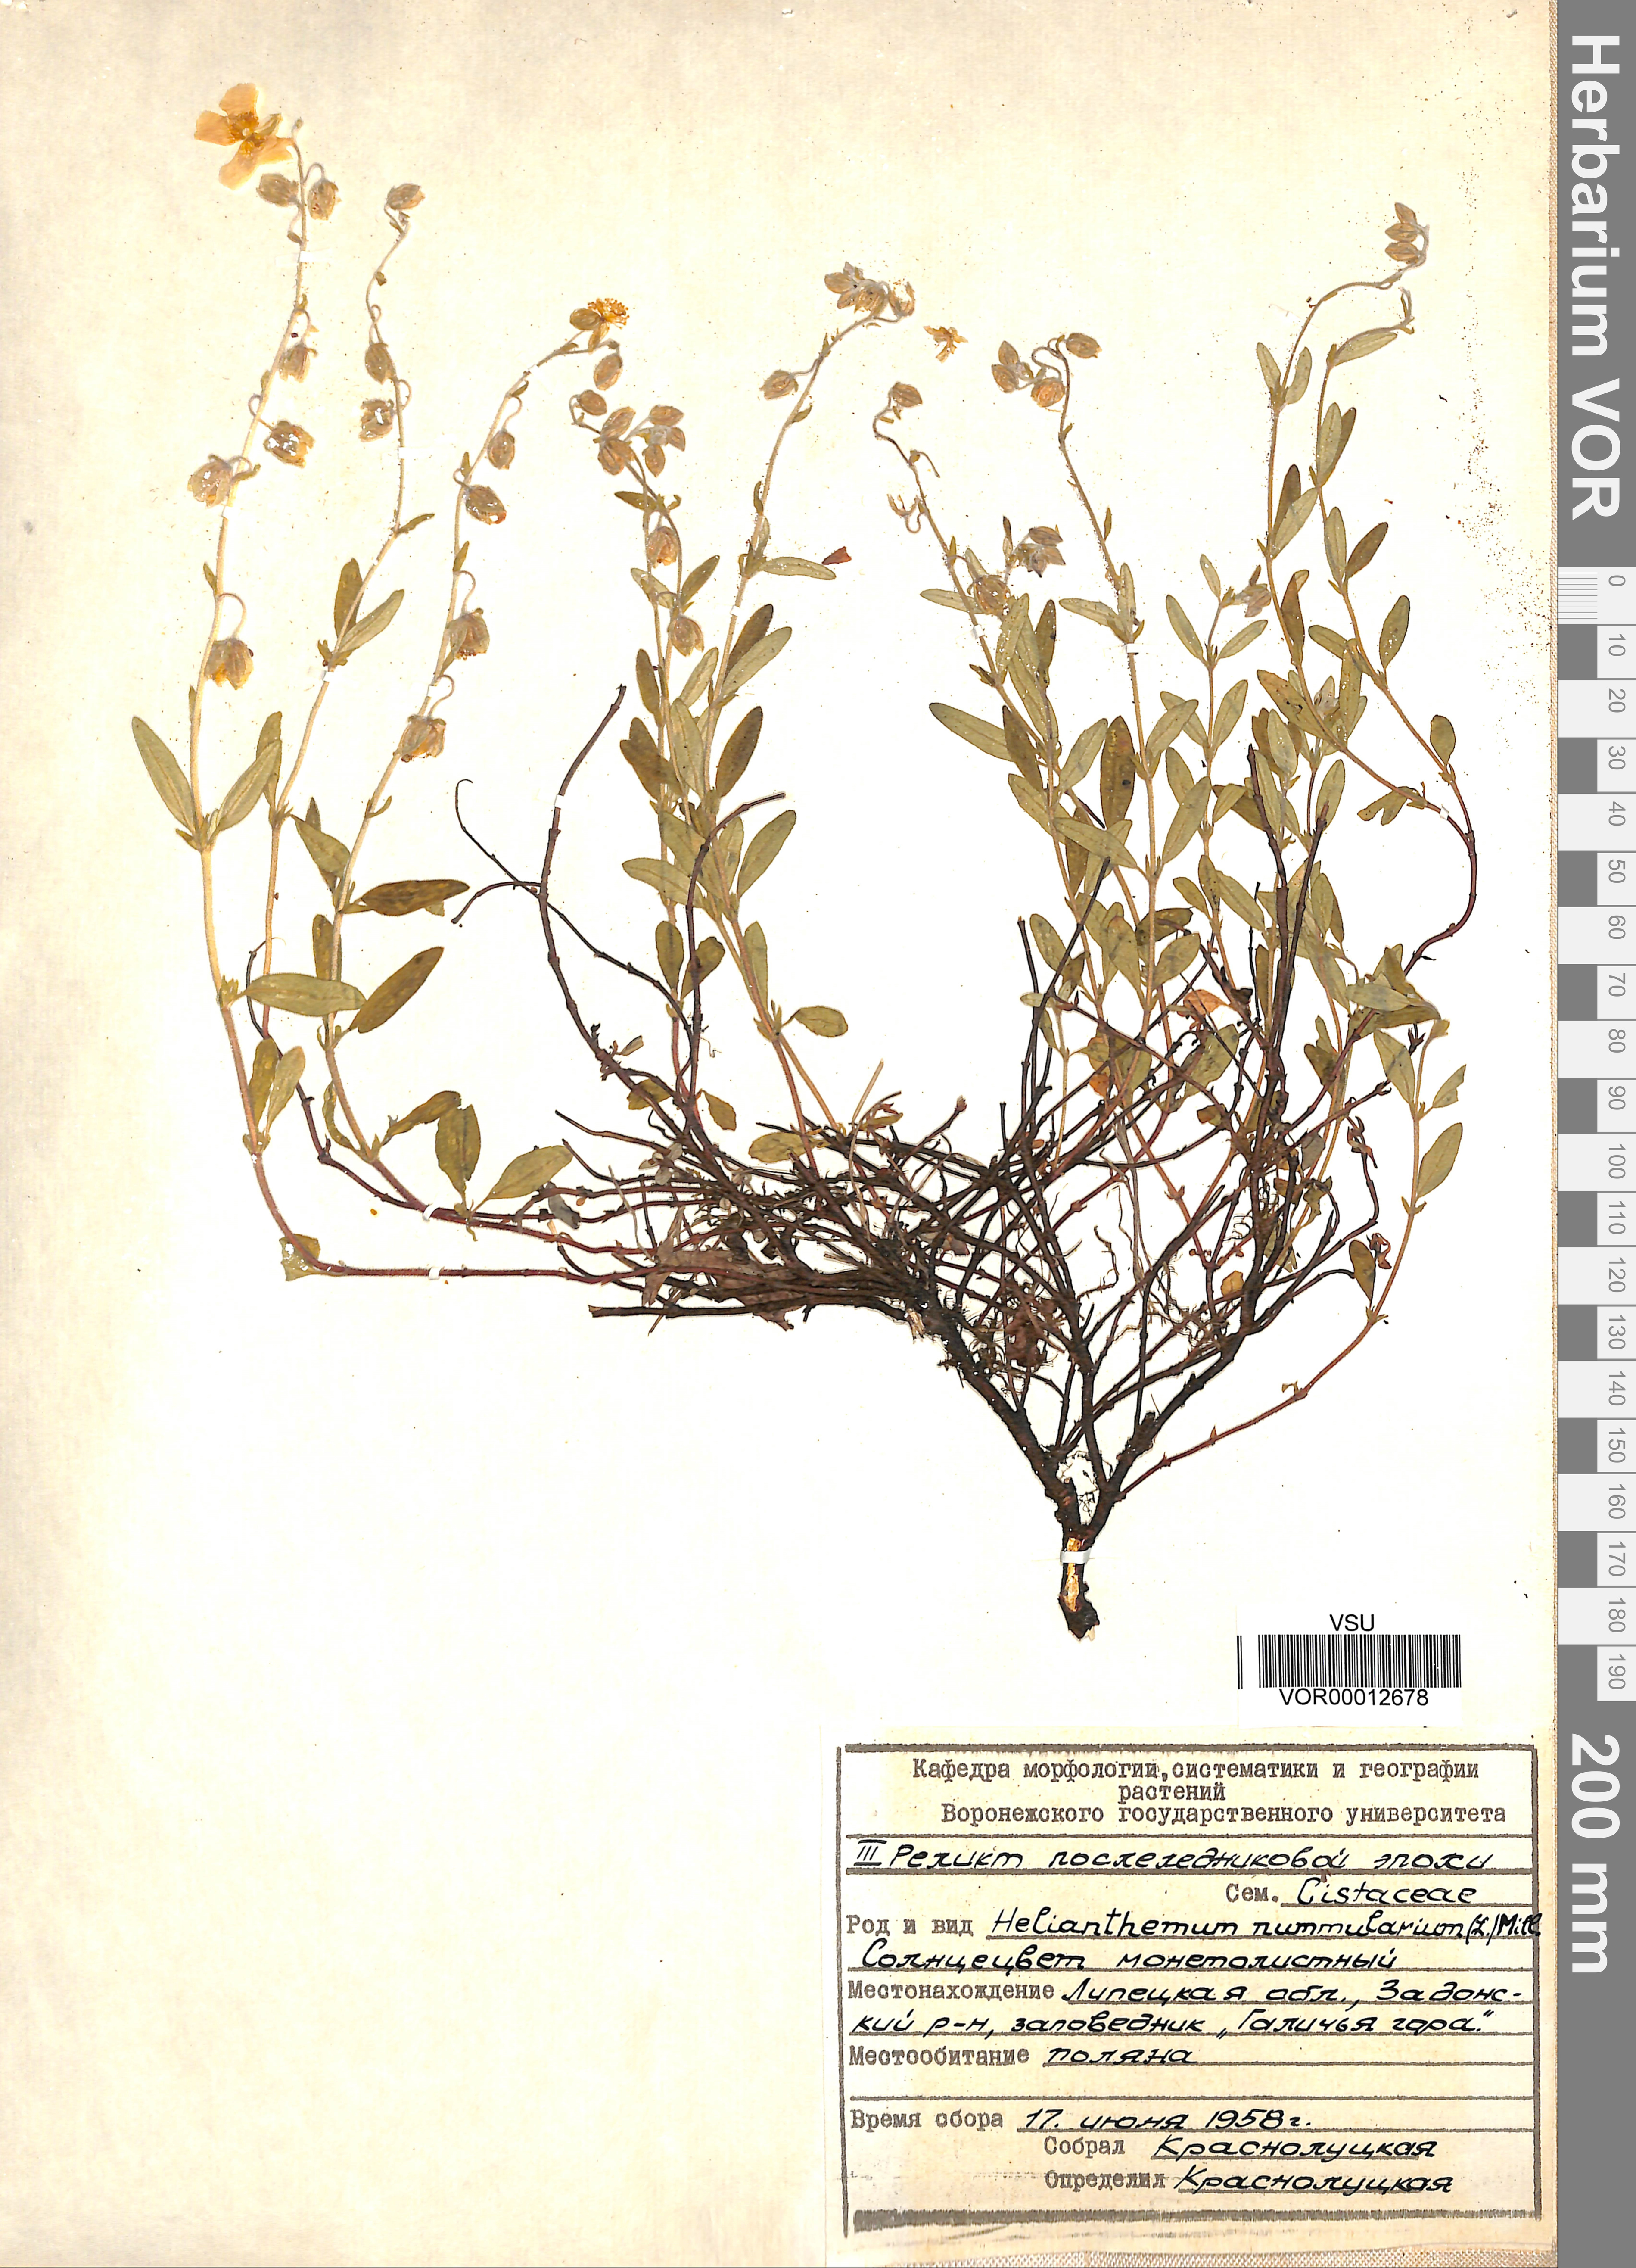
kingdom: Plantae
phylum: Tracheophyta
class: Magnoliopsida
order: Malvales
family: Cistaceae
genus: Helianthemum
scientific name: Helianthemum nummularium
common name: Common rock-rose
